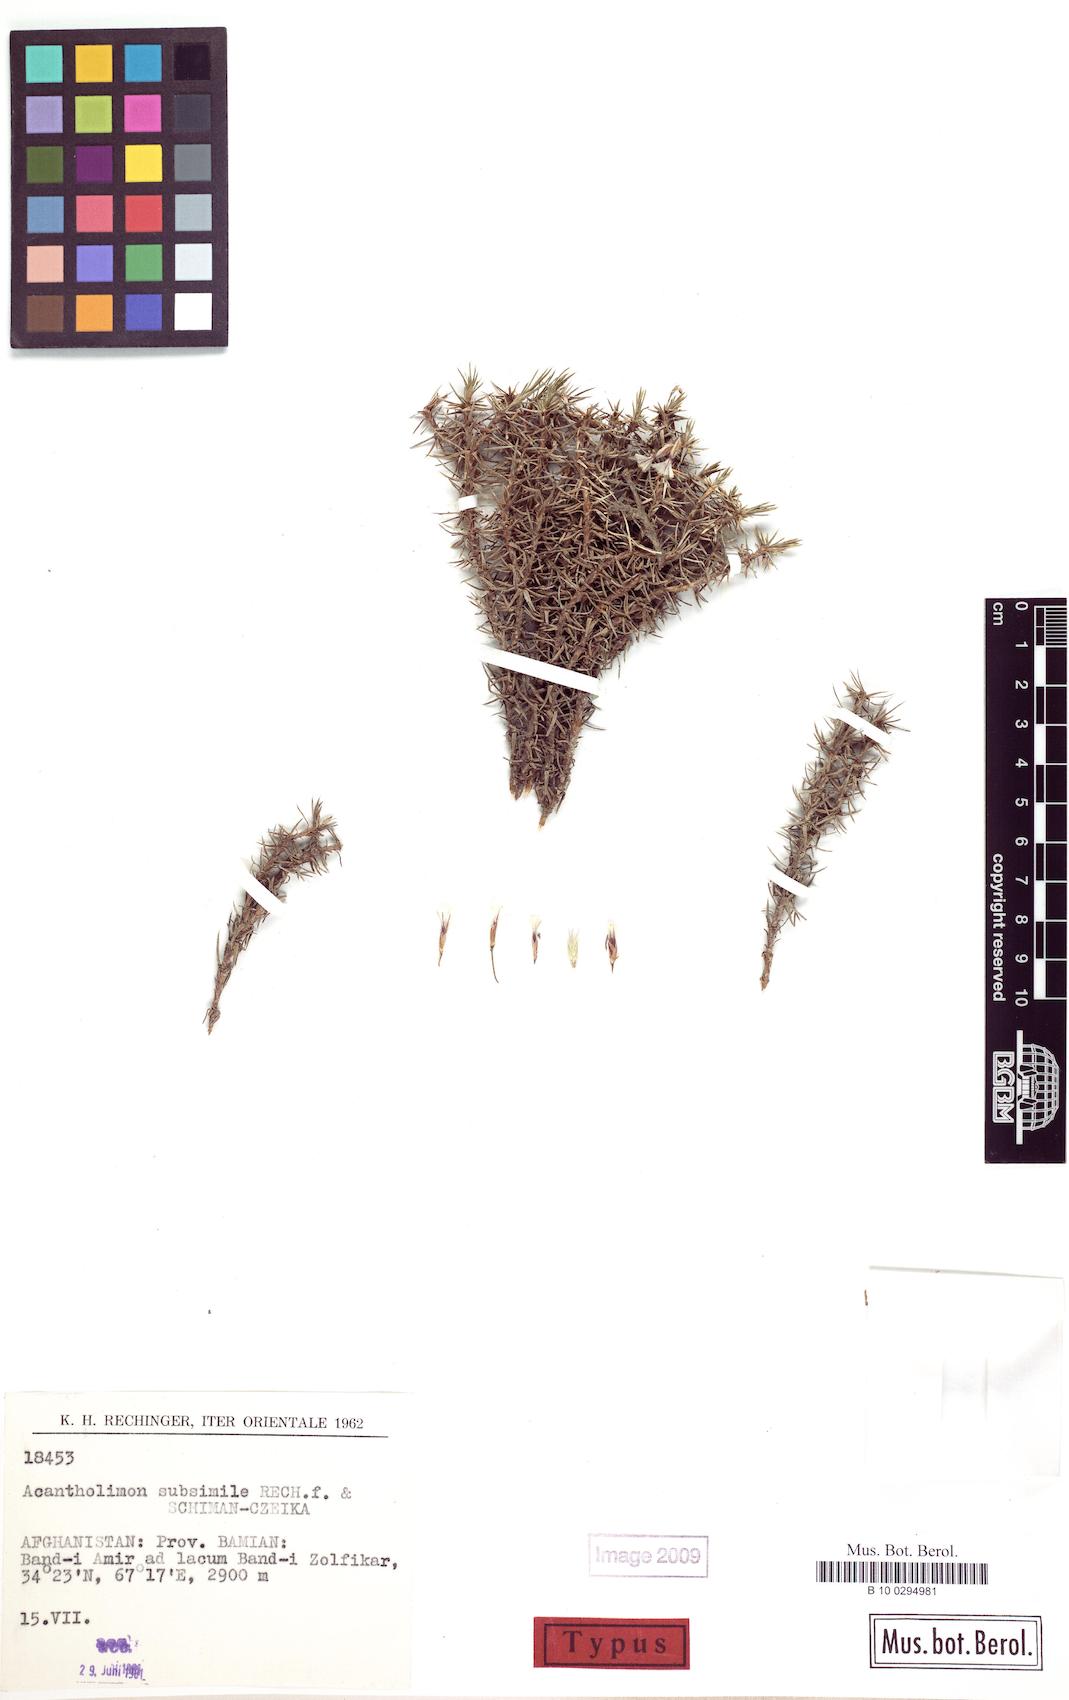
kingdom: Plantae
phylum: Tracheophyta
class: Magnoliopsida
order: Caryophyllales
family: Plumbaginaceae
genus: Acantholimon
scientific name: Acantholimon subsimile
